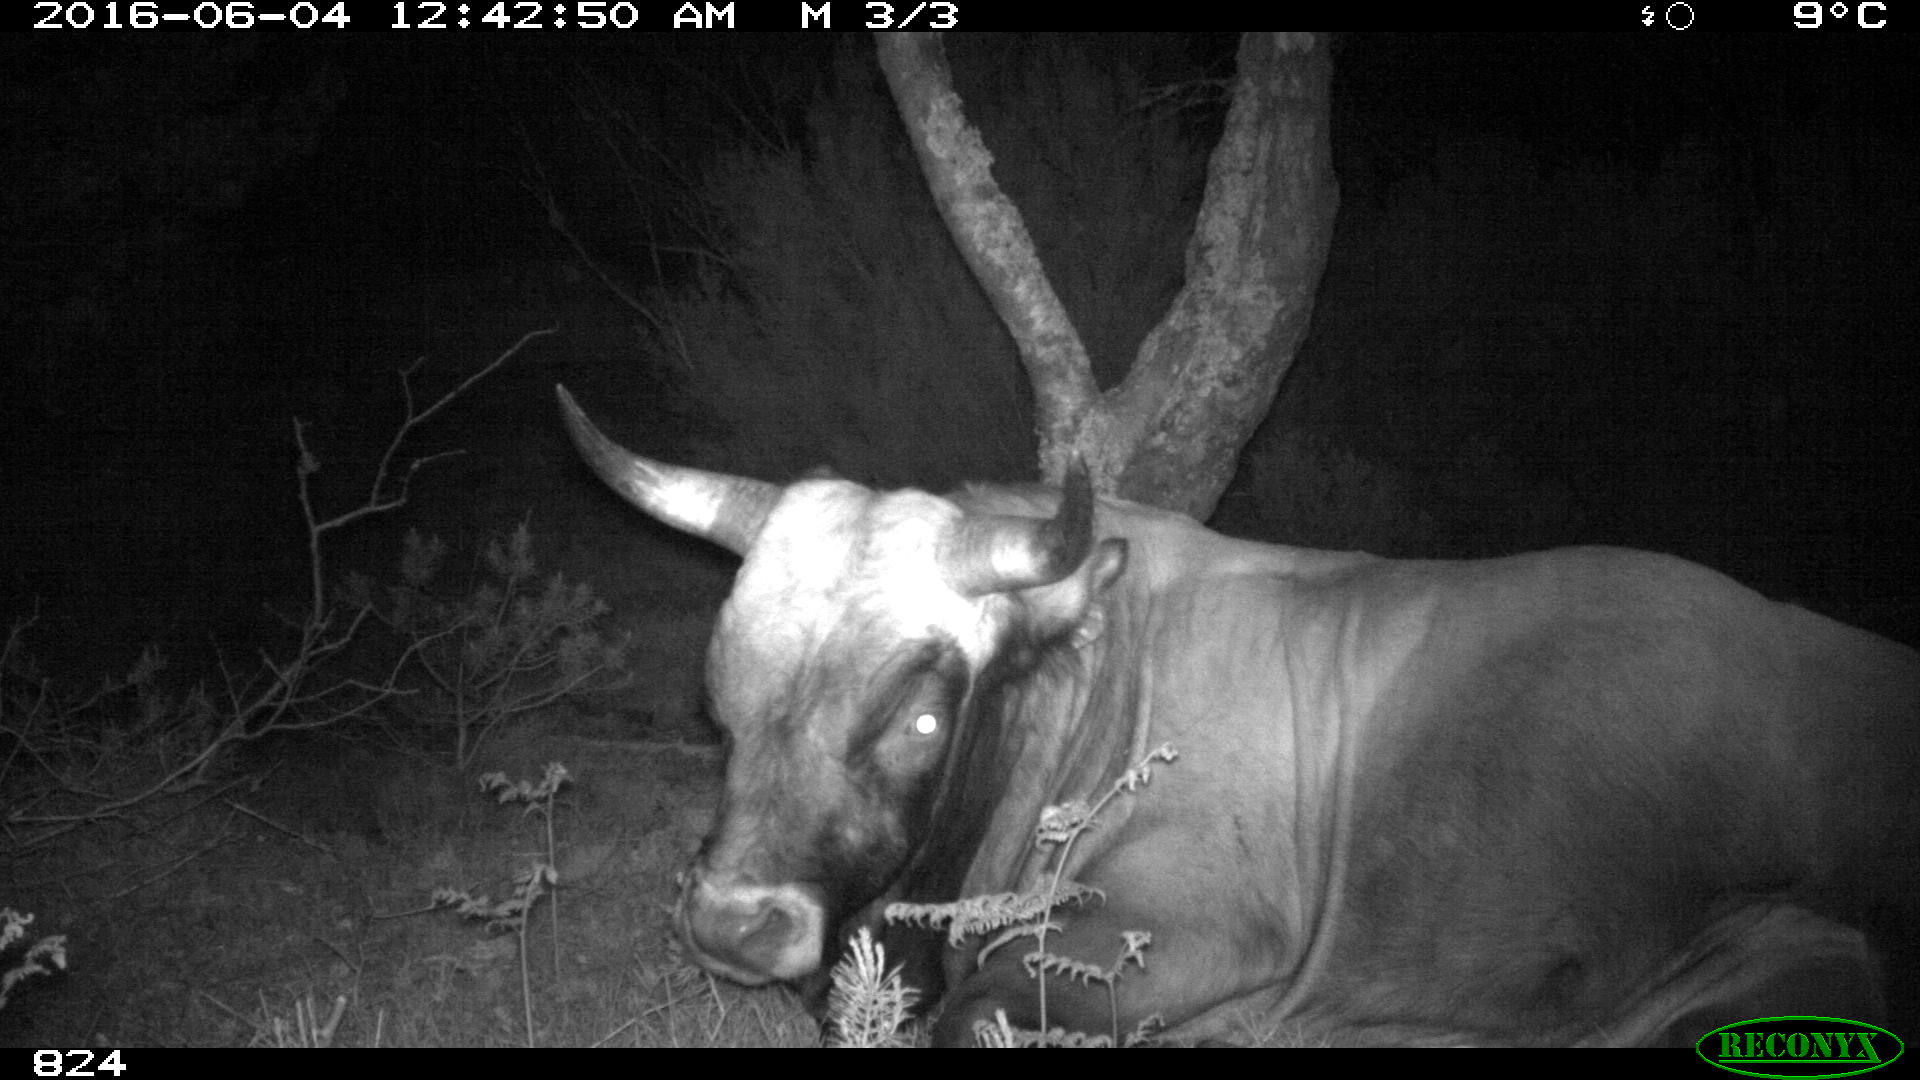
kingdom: Animalia
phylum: Chordata
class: Mammalia
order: Artiodactyla
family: Bovidae
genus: Bos
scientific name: Bos taurus
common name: Domesticated cattle
